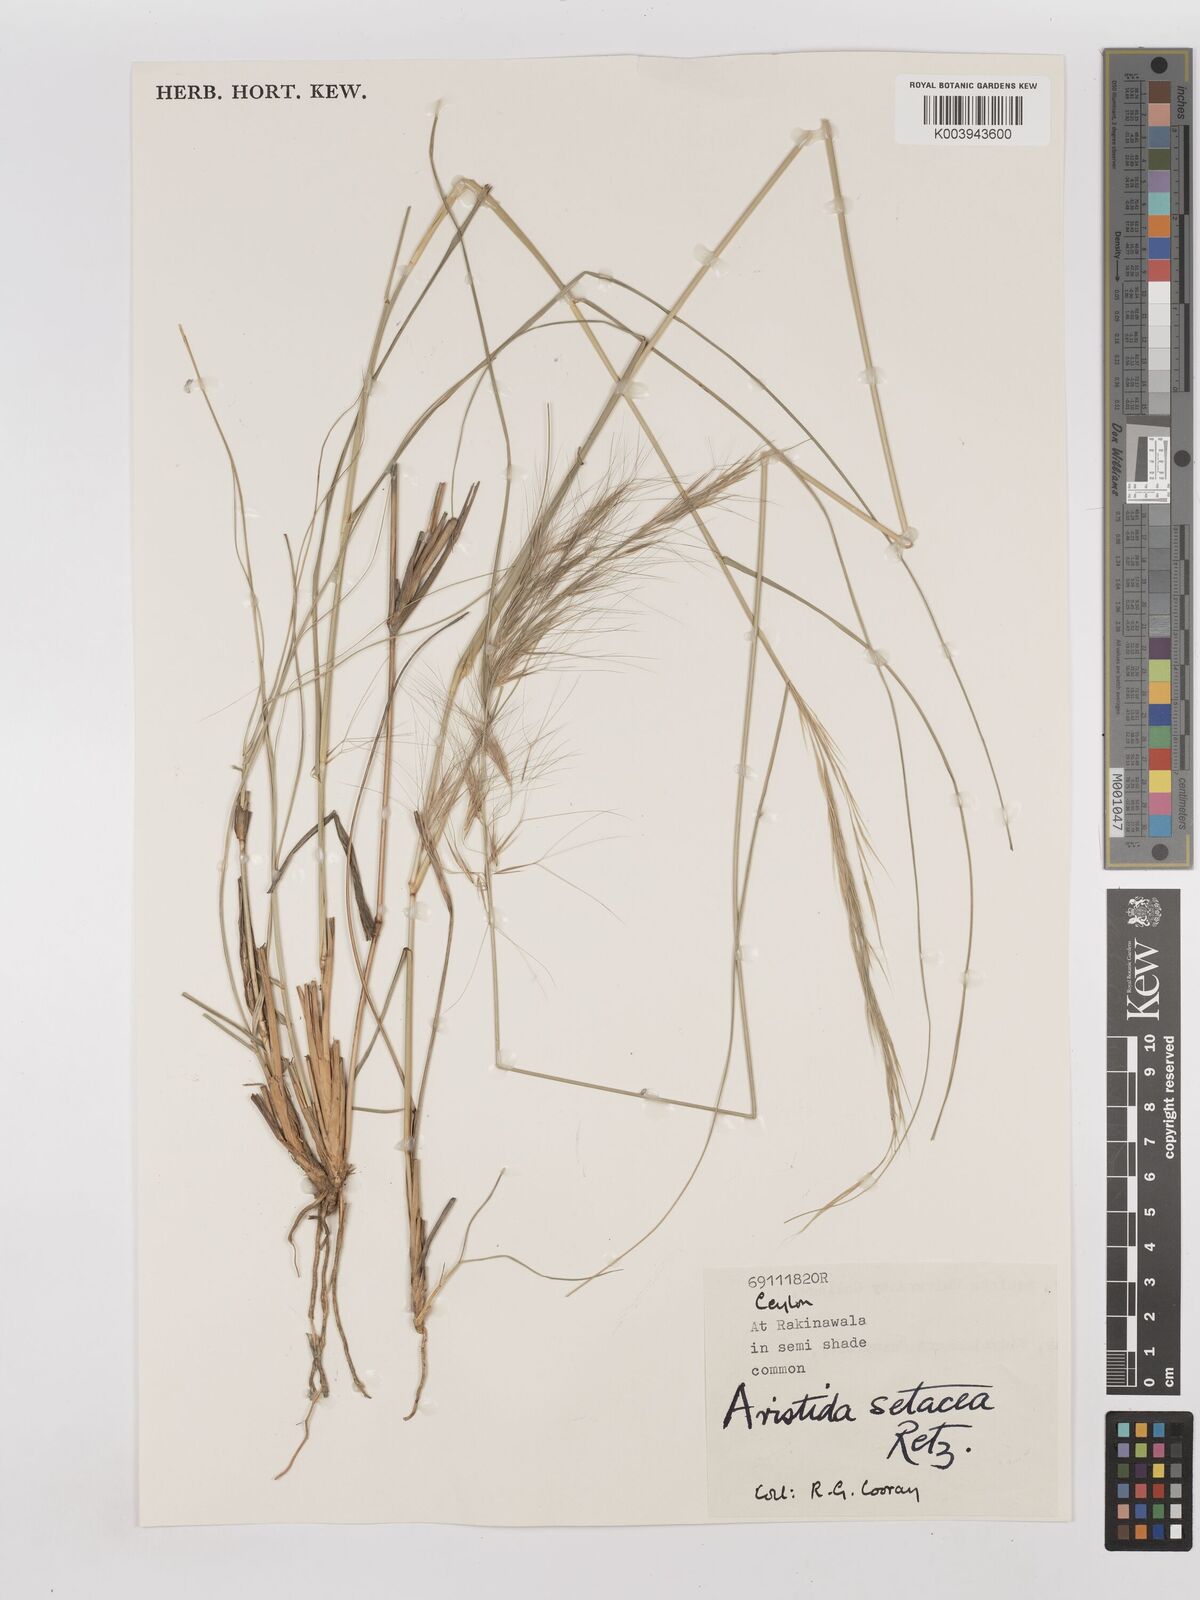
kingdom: Plantae
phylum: Tracheophyta
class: Liliopsida
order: Poales
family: Poaceae
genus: Aristida
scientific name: Aristida setacea
